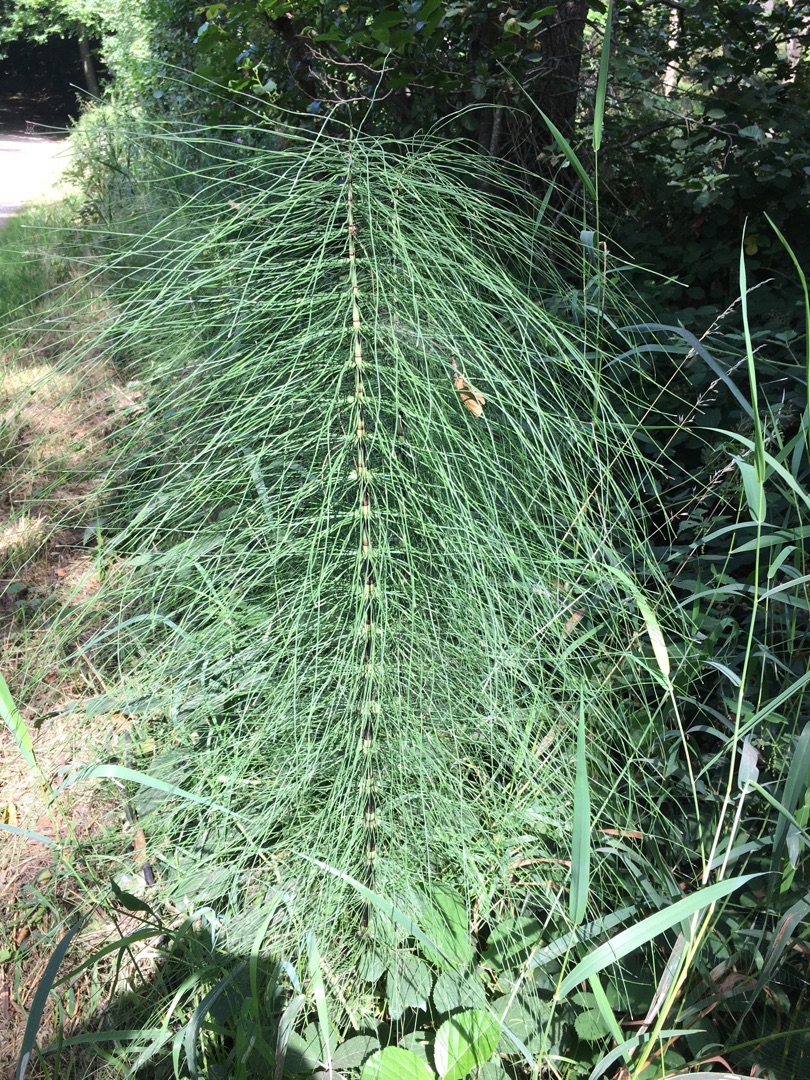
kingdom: Plantae
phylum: Tracheophyta
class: Polypodiopsida
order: Equisetales
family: Equisetaceae
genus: Equisetum
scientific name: Equisetum telmateia
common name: Elfenbens-padderok
